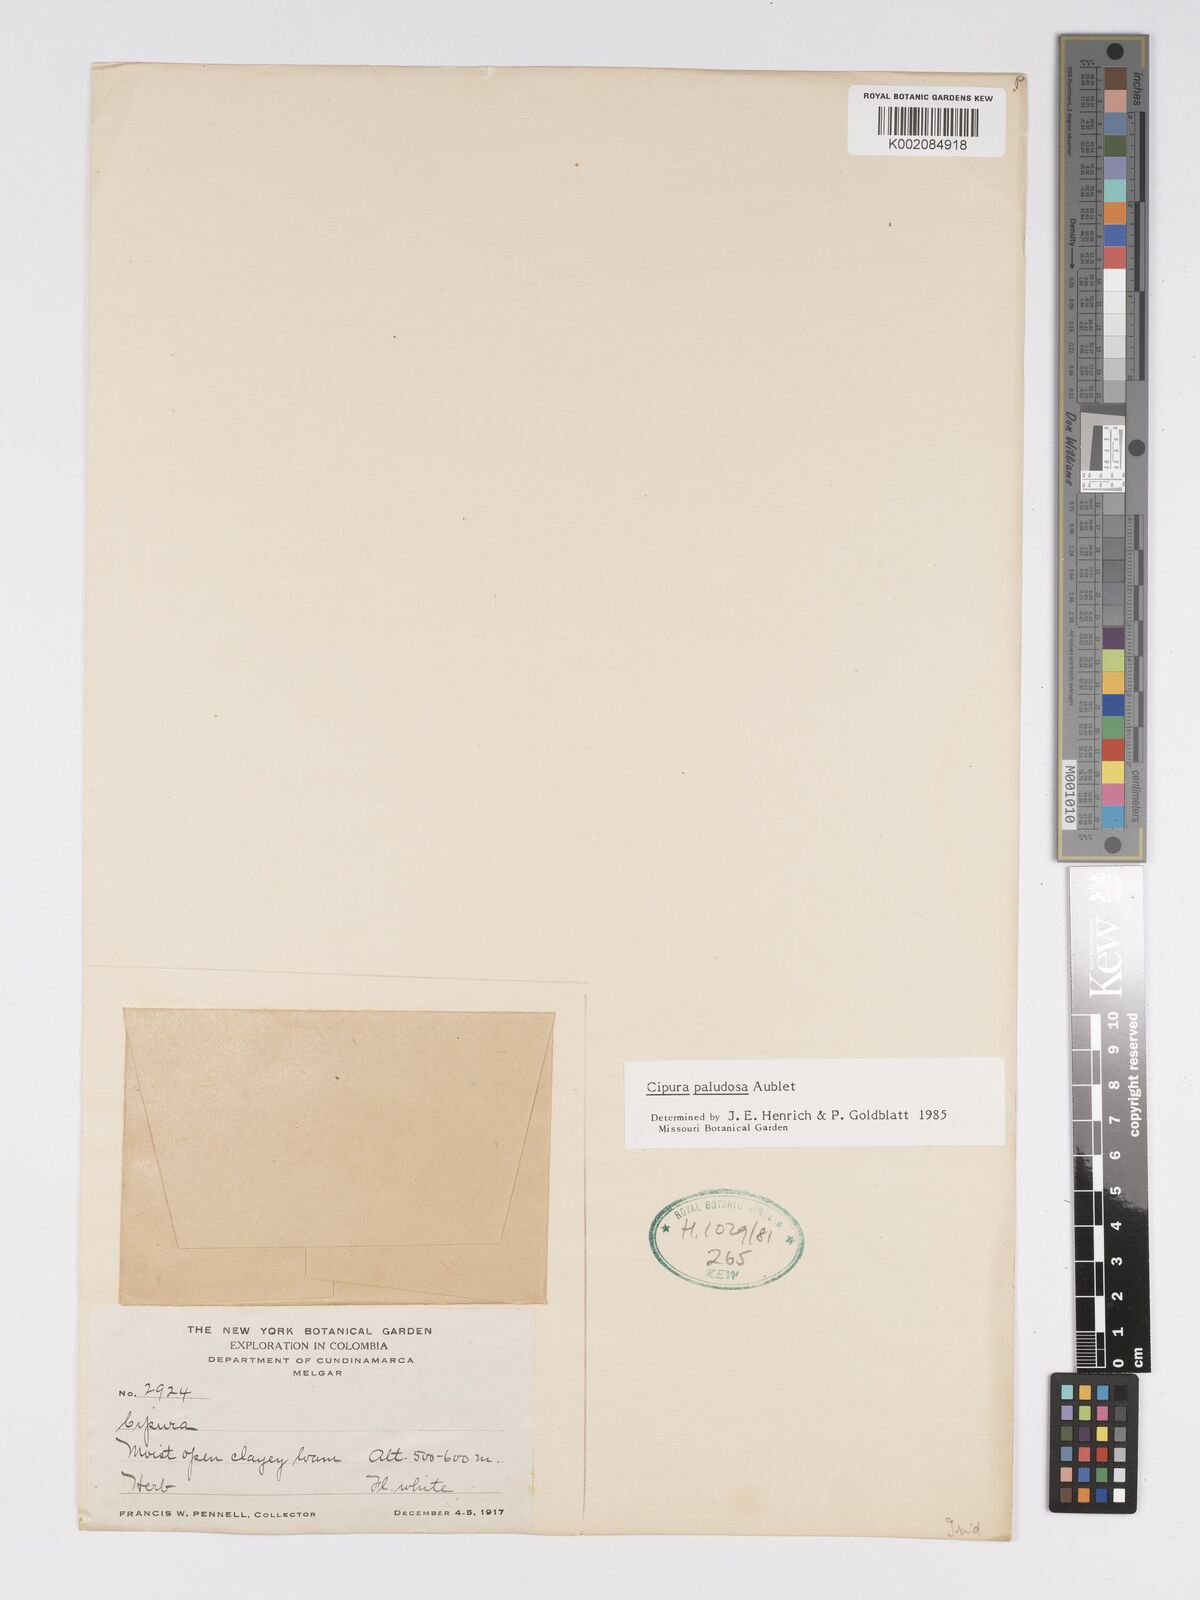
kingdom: Plantae
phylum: Tracheophyta
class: Liliopsida
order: Asparagales
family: Iridaceae
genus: Cipura
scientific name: Cipura paludosa
